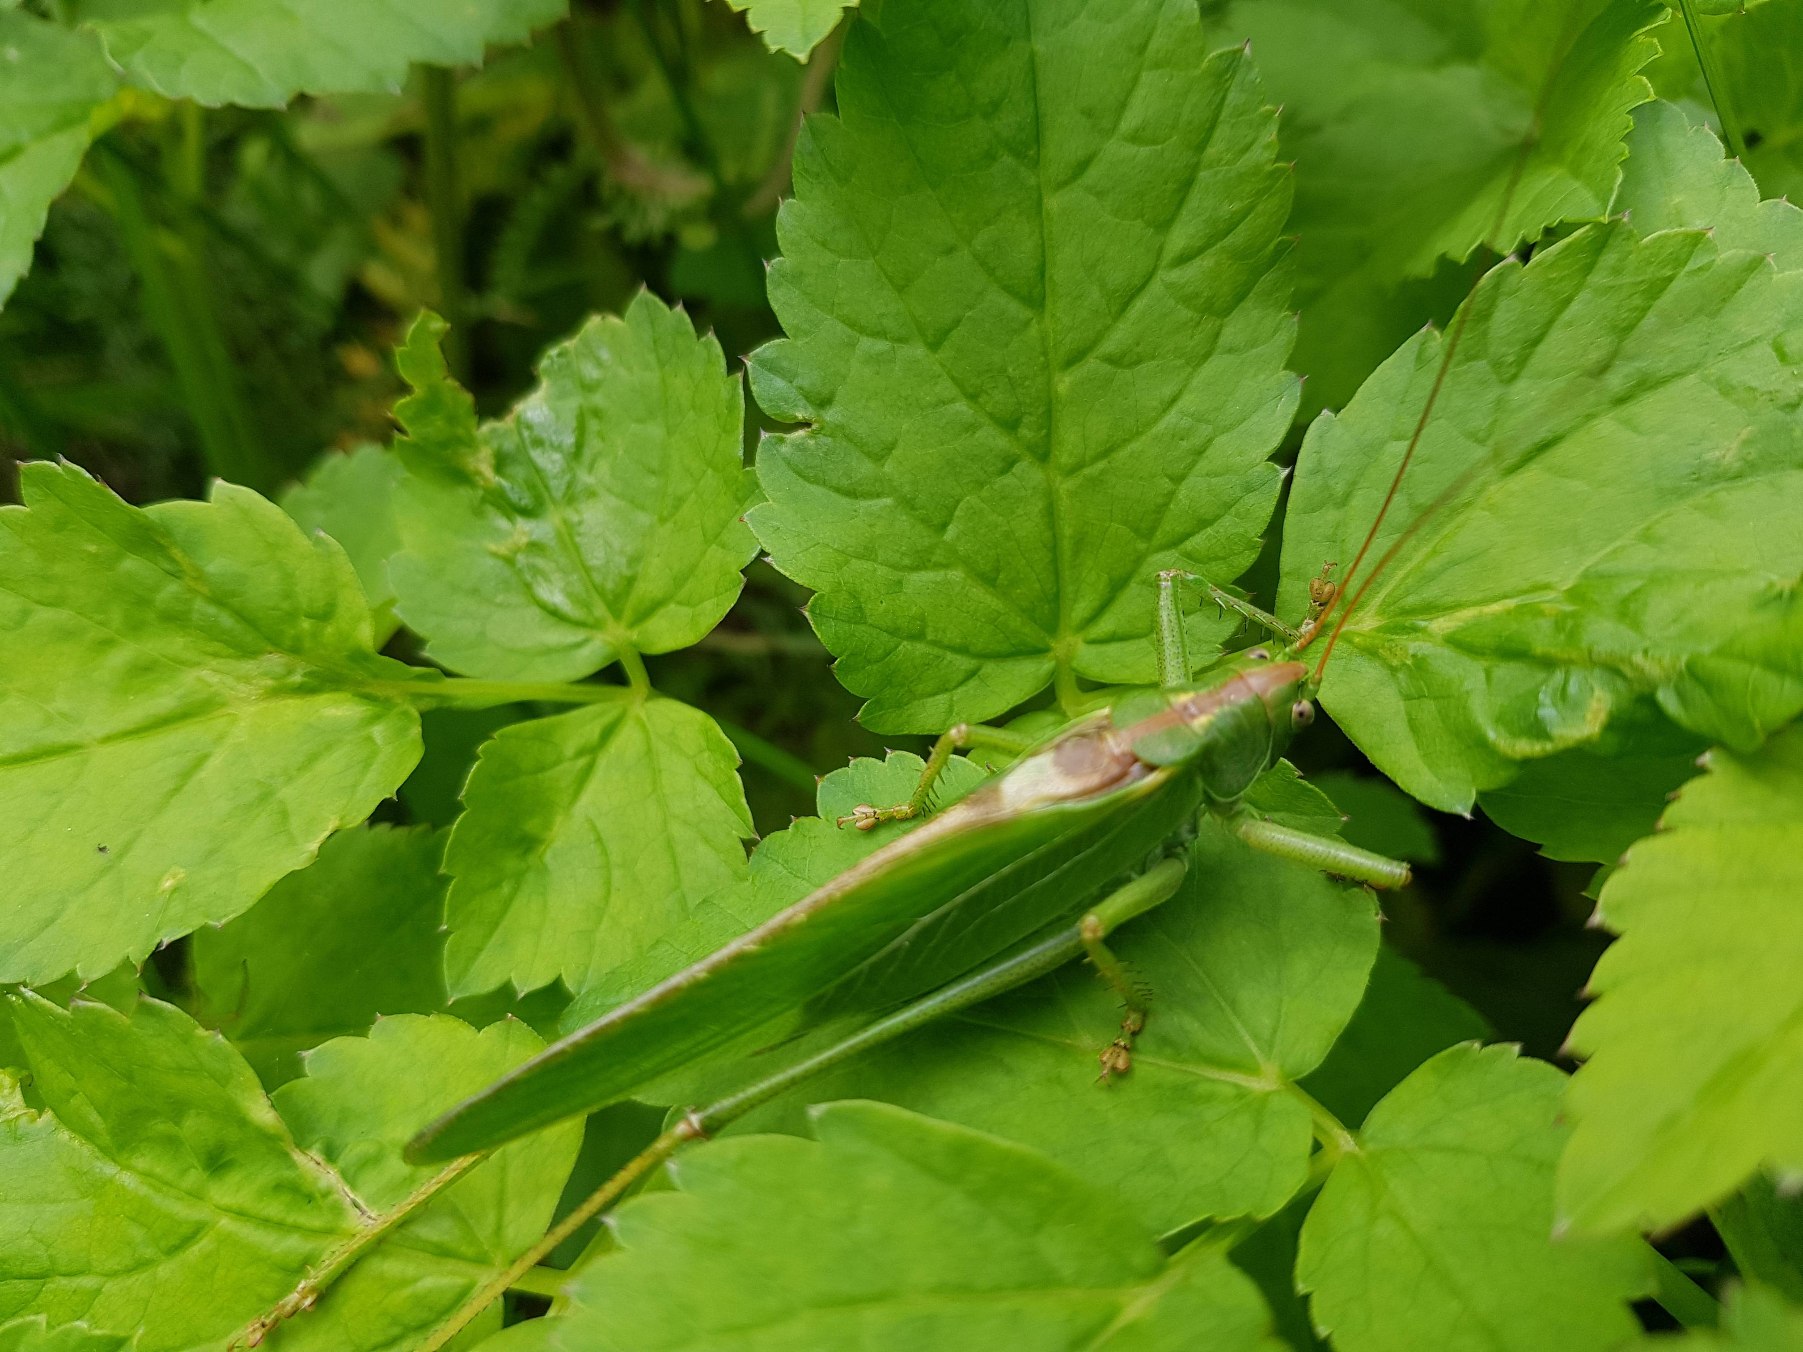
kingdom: Animalia
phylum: Arthropoda
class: Insecta
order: Orthoptera
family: Tettigoniidae
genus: Tettigonia
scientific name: Tettigonia viridissima
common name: Stor grøn løvgræshoppe
